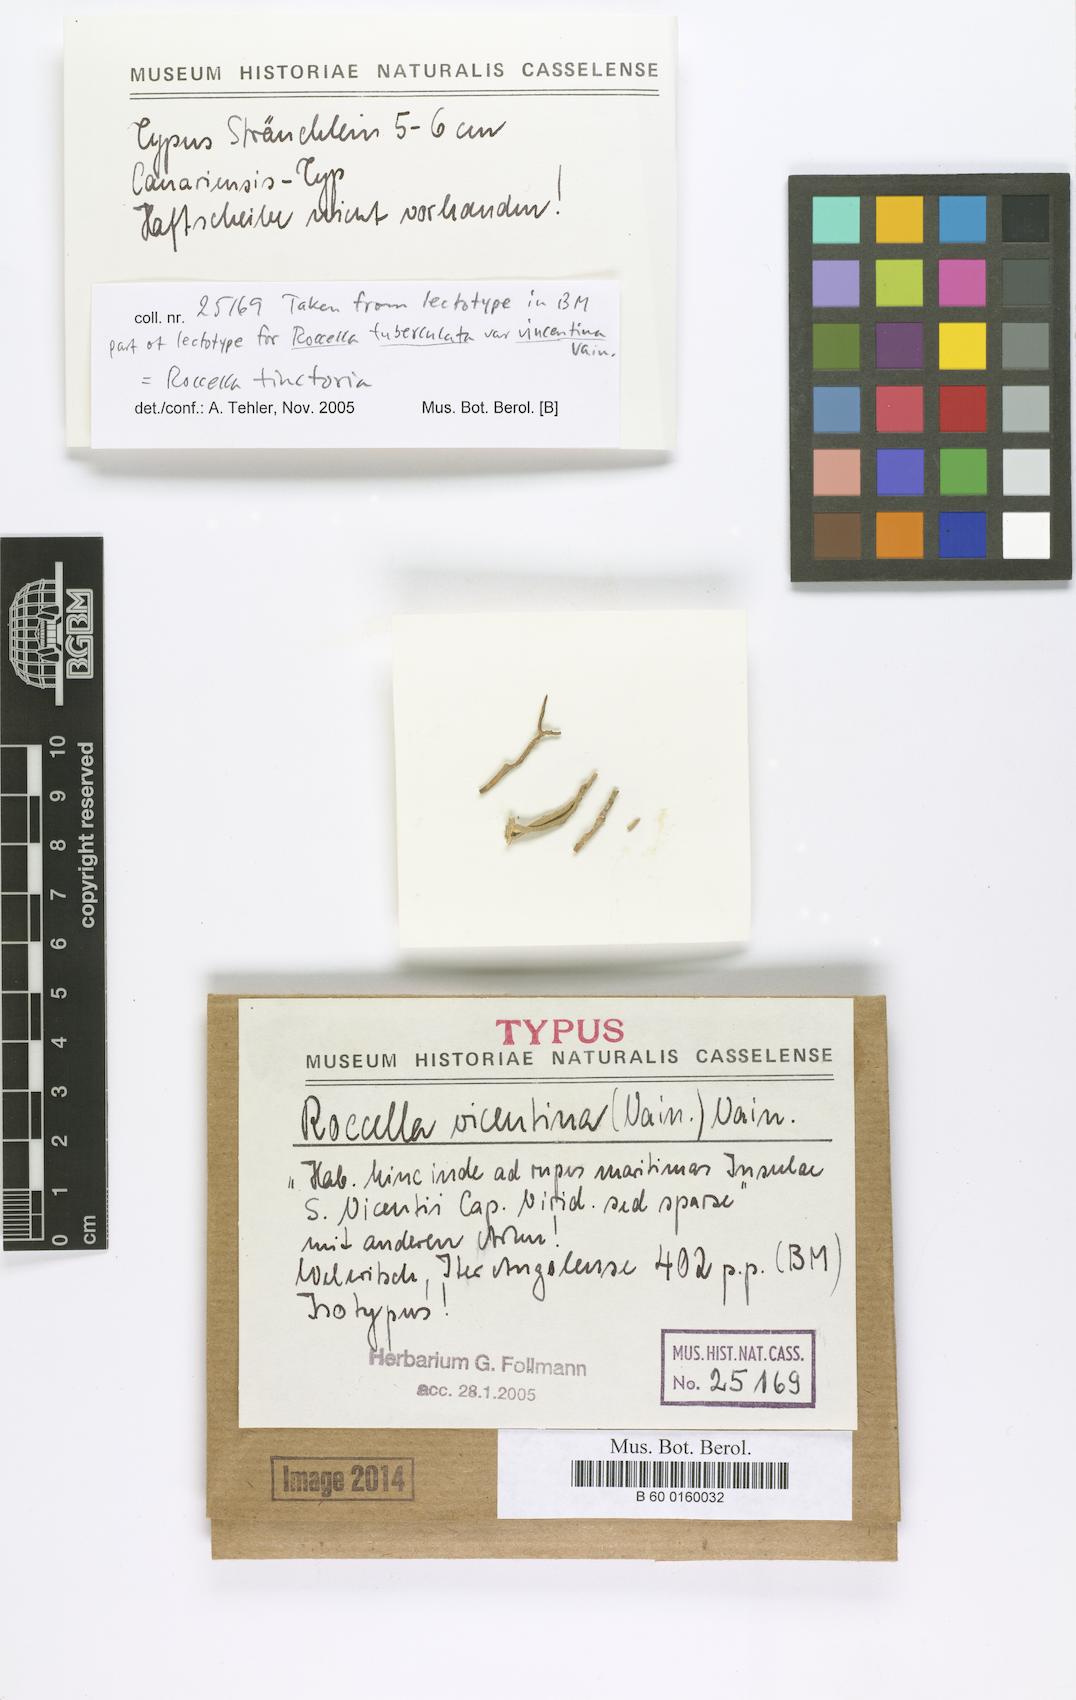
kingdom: Fungi
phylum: Ascomycota
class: Arthoniomycetes
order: Arthoniales
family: Roccellaceae
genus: Roccella
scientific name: Roccella vicentina
